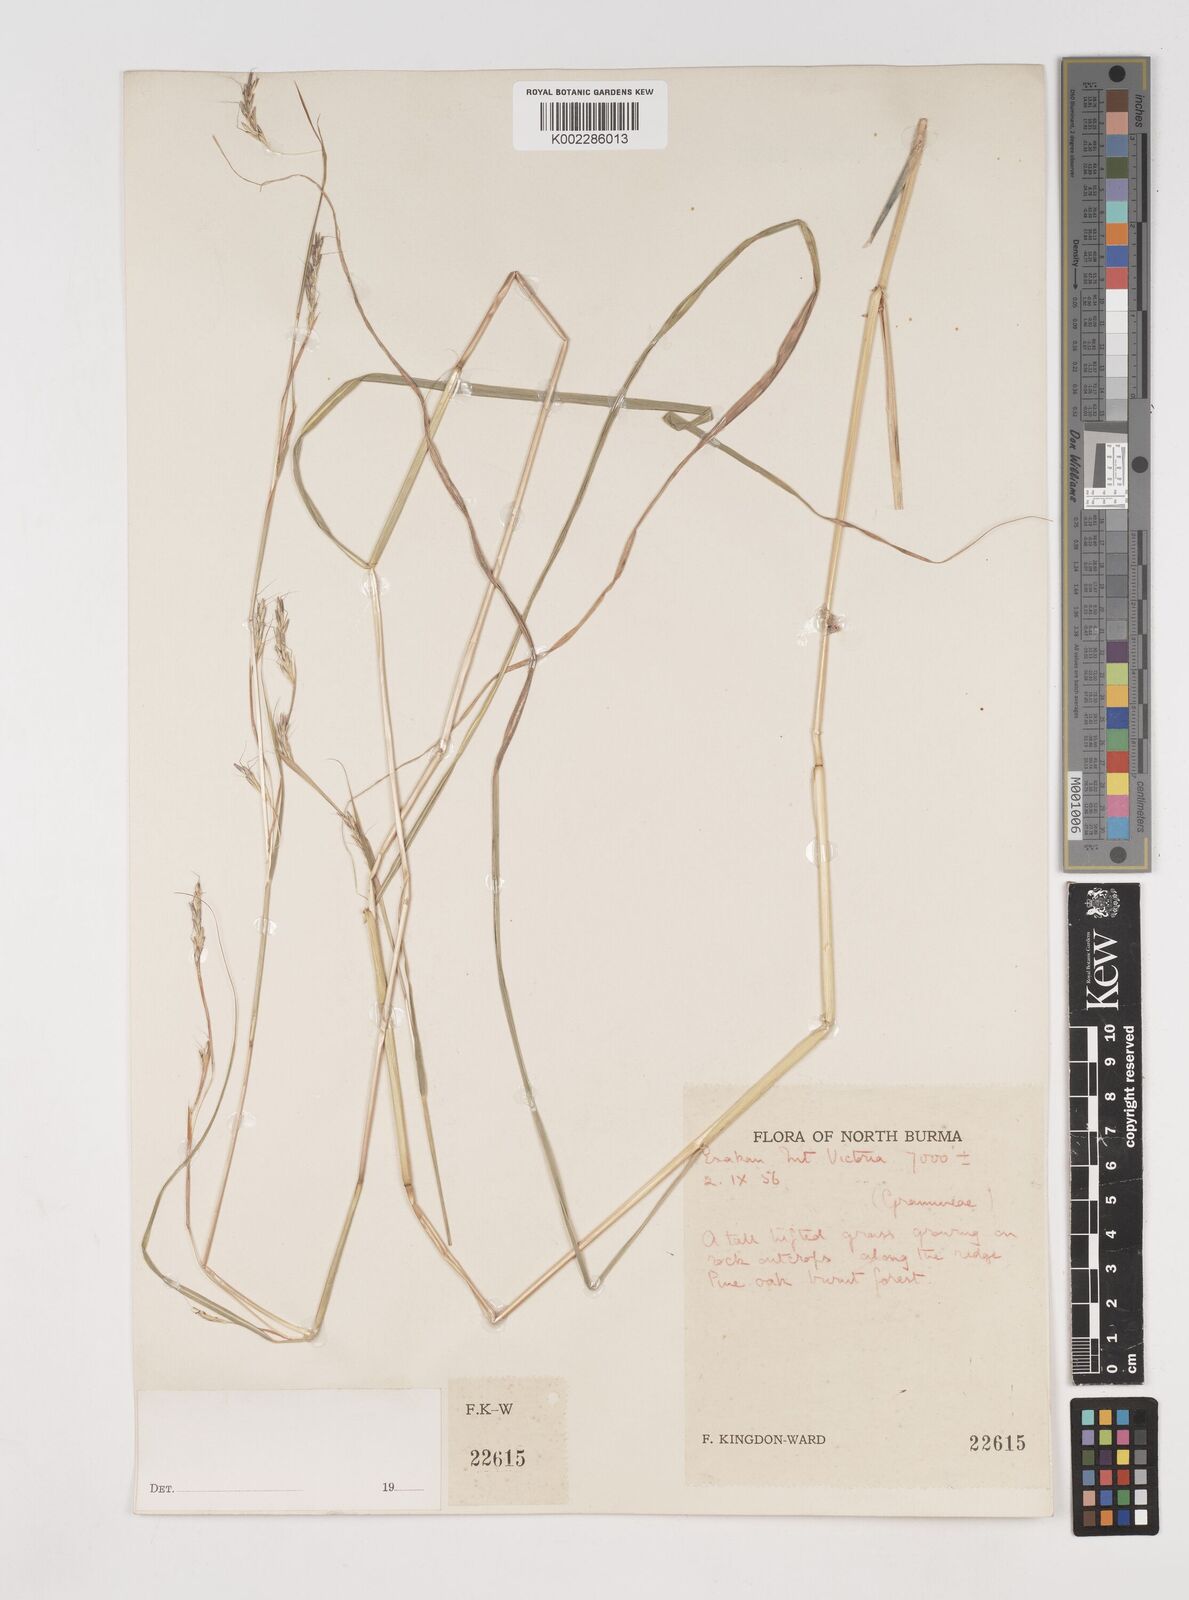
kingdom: Plantae
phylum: Tracheophyta
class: Liliopsida
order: Poales
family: Poaceae
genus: Schizachyrium
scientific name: Schizachyrium delavayi
